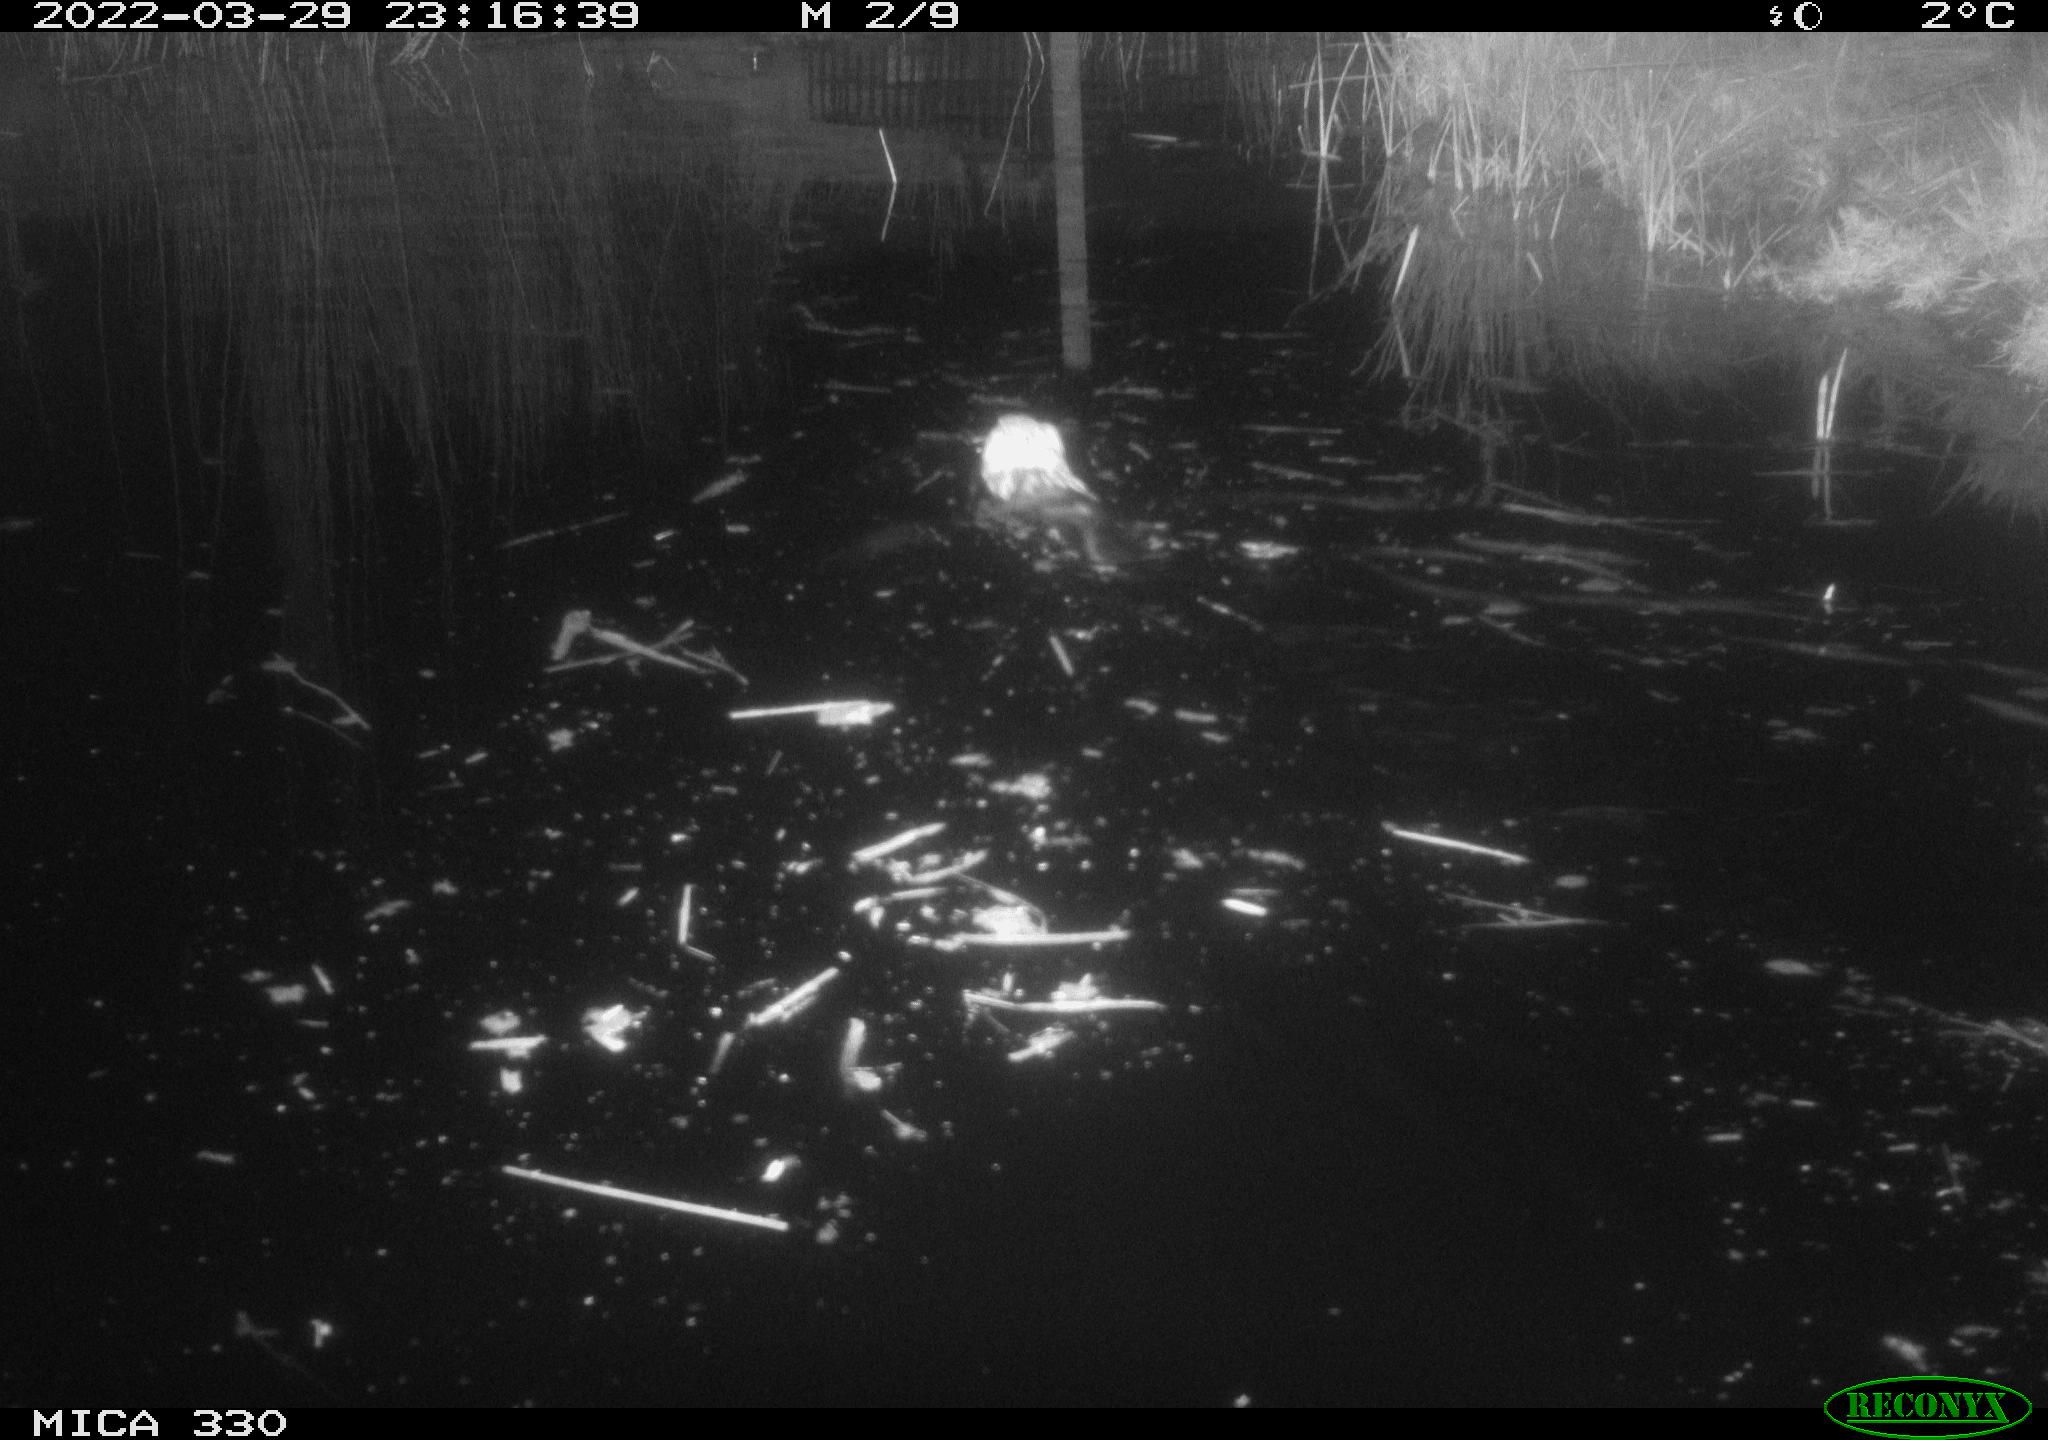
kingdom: Animalia
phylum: Chordata
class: Mammalia
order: Rodentia
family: Muridae
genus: Rattus
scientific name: Rattus norvegicus
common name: Brown rat
